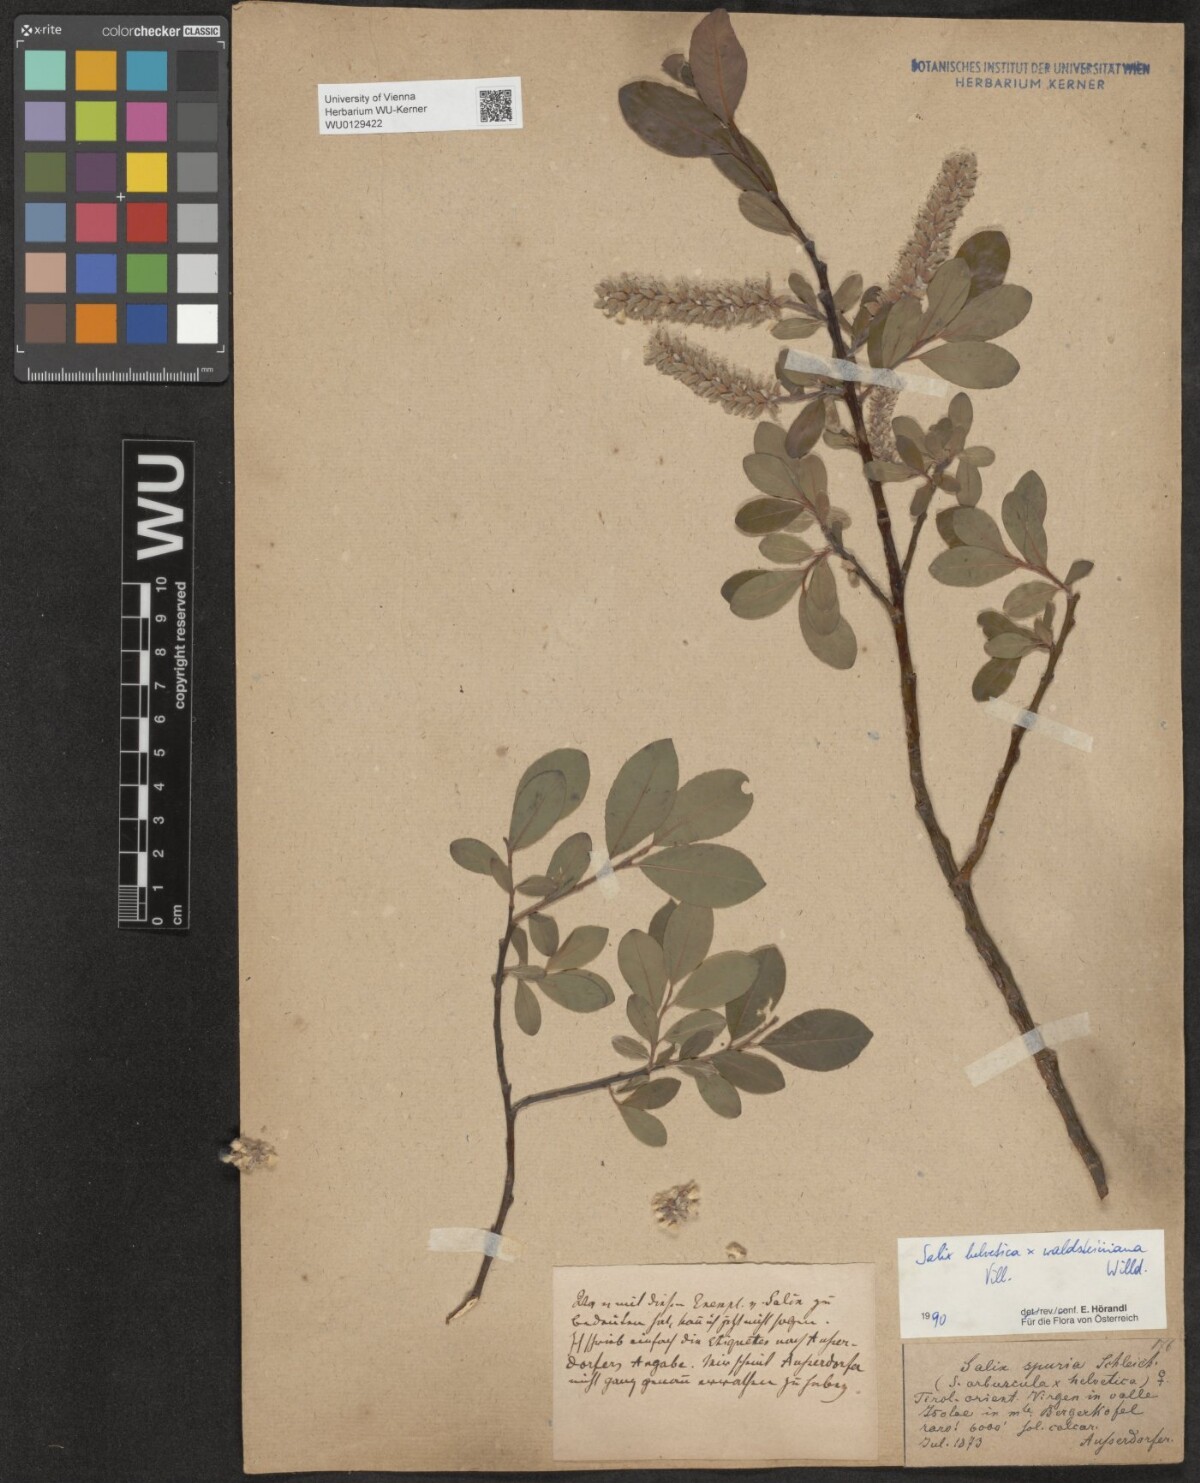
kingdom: Plantae
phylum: Tracheophyta
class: Magnoliopsida
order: Malpighiales
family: Salicaceae
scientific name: Salicaceae
